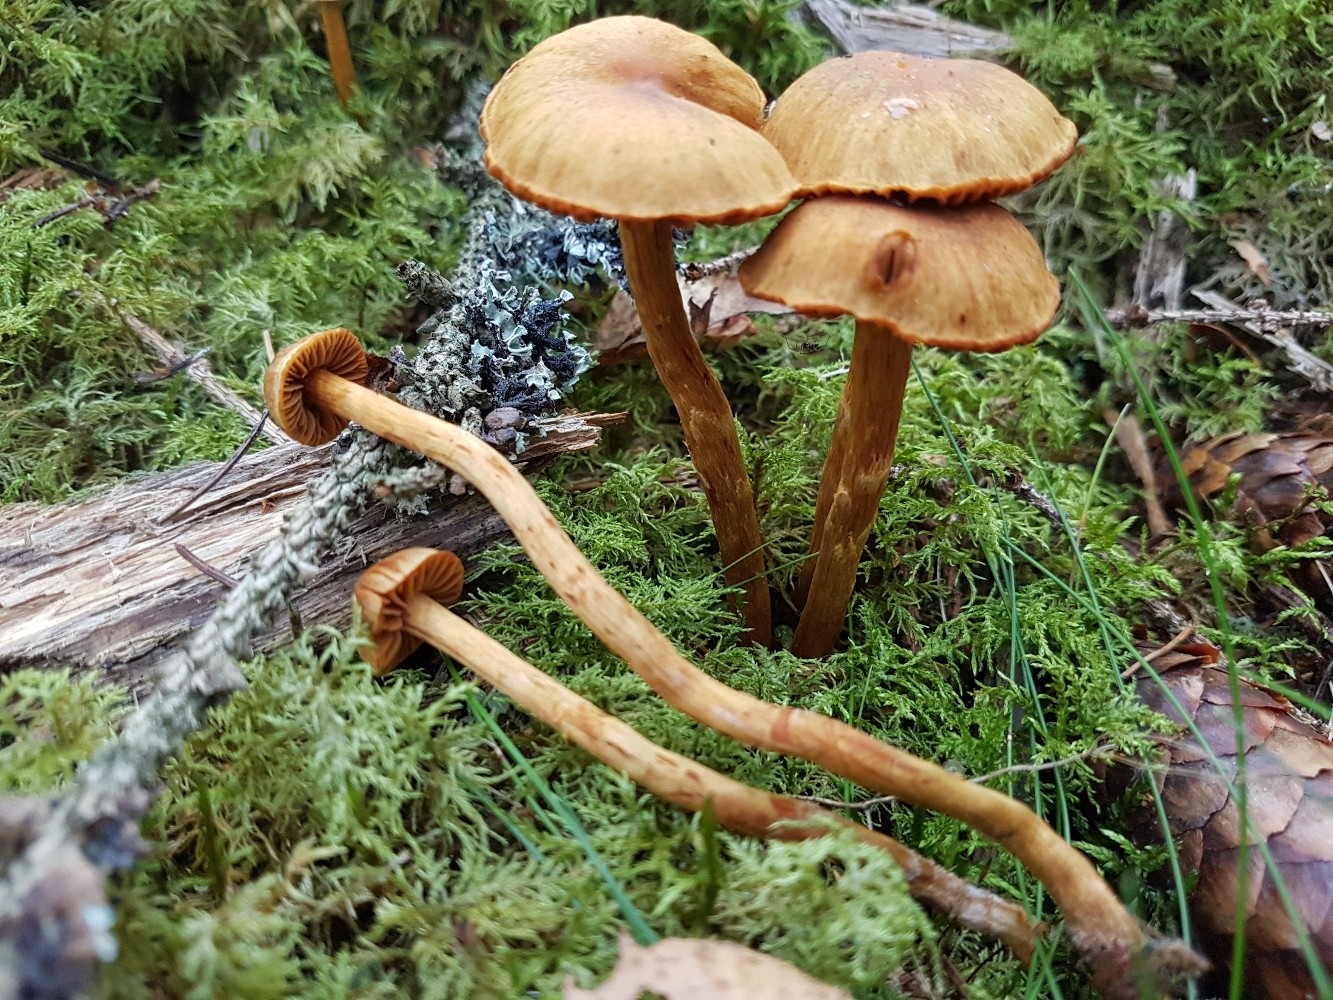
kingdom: Fungi
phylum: Basidiomycota
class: Agaricomycetes
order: Agaricales
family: Cortinariaceae
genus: Cortinarius
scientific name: Cortinarius gentilis
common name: bæltet slørhat
